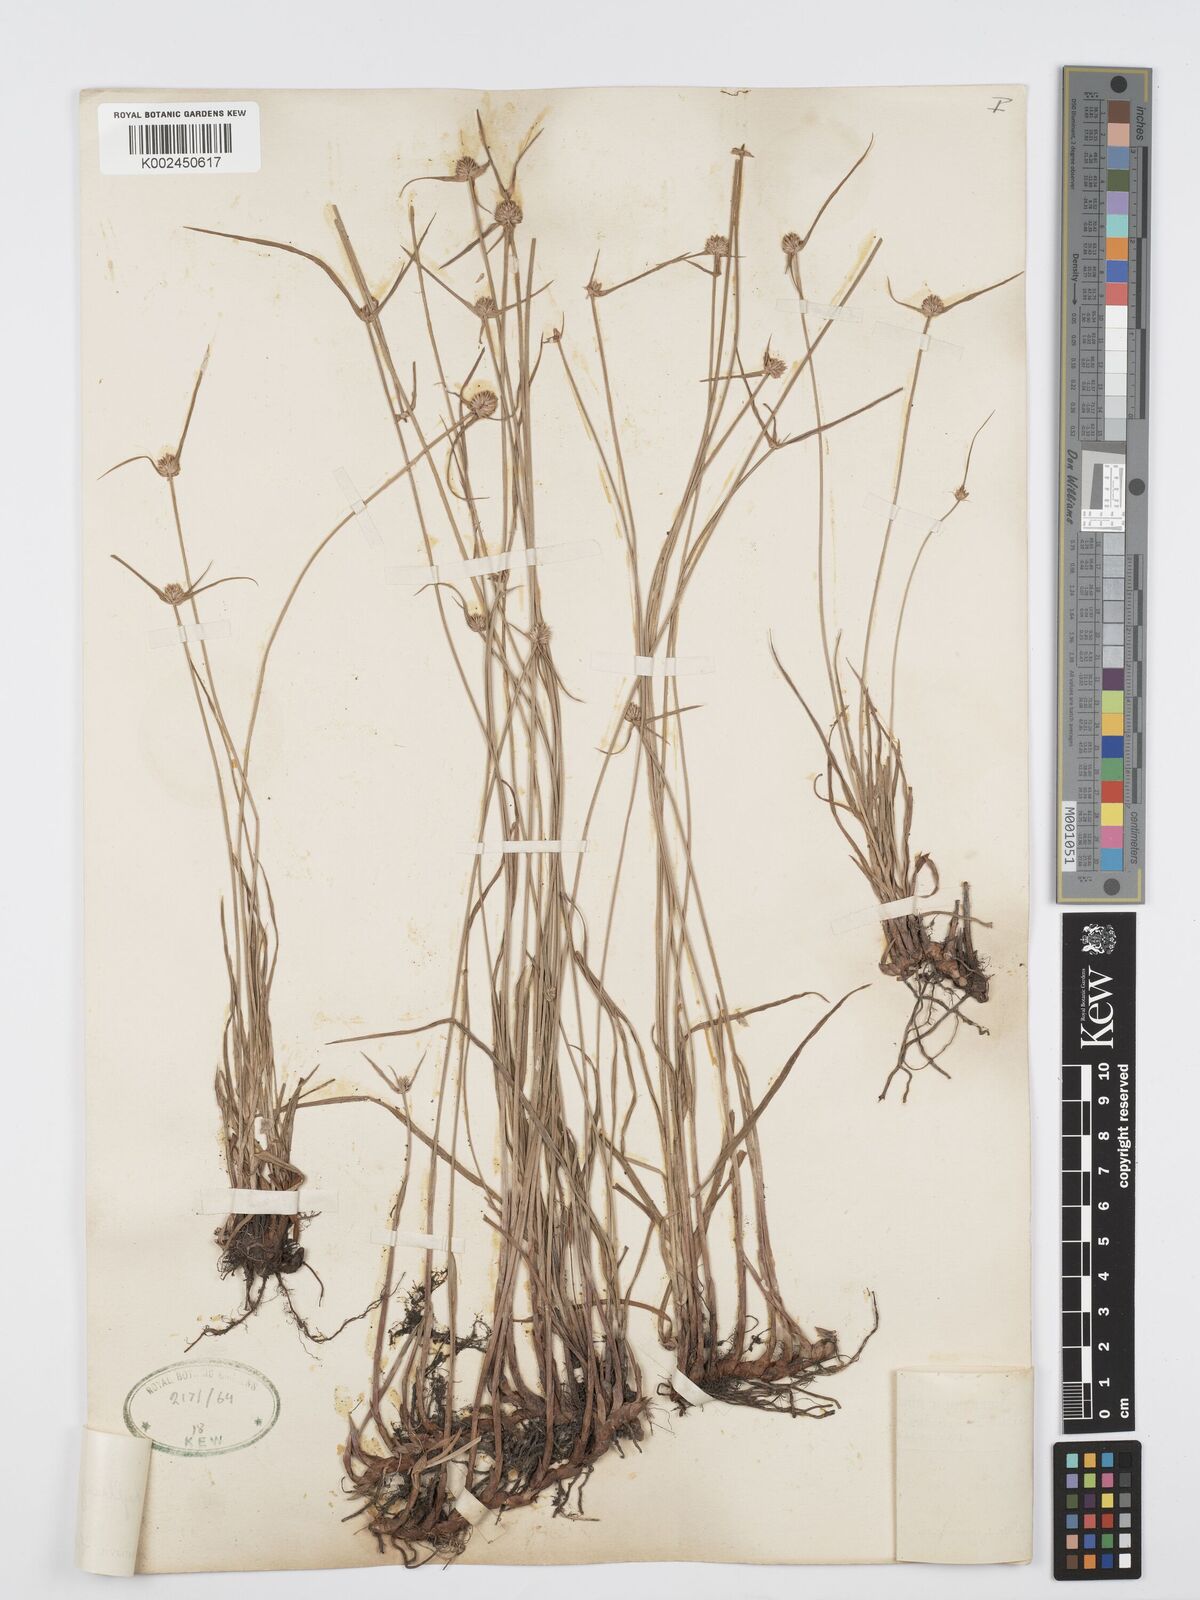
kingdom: Plantae
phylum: Tracheophyta
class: Liliopsida
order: Poales
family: Cyperaceae
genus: Cyperus
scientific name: Cyperus erectus
